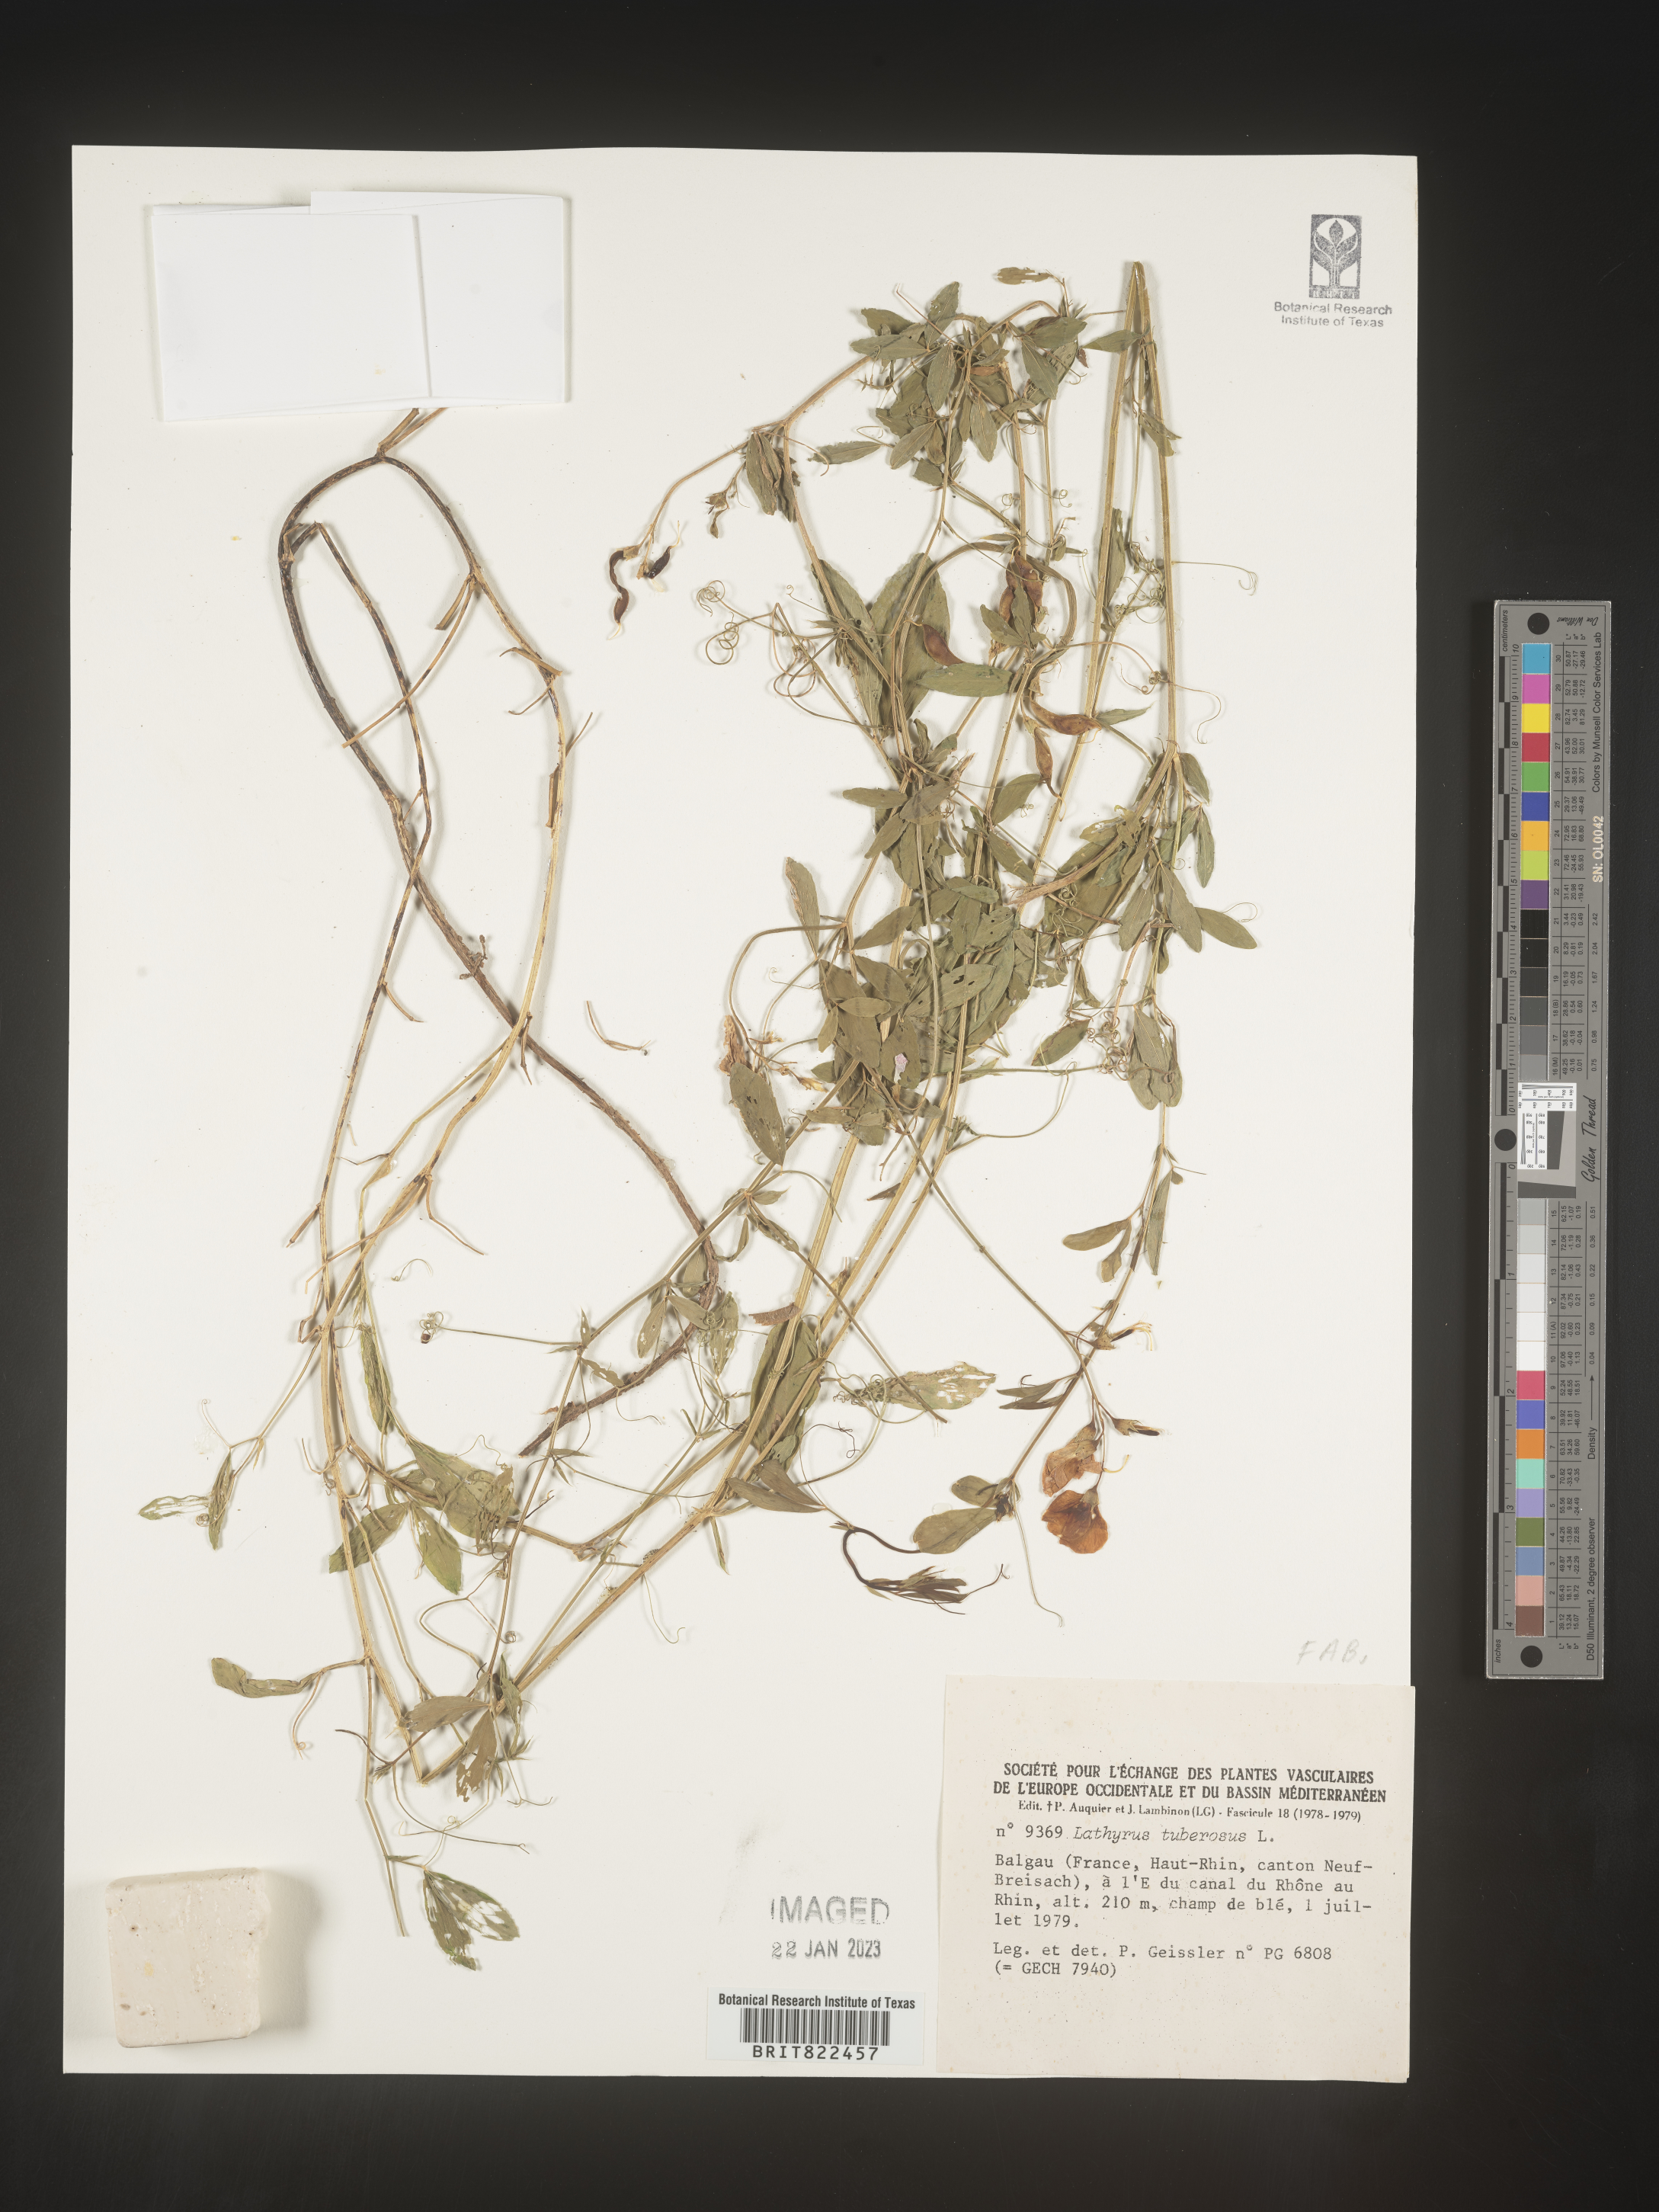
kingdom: Plantae
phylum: Tracheophyta
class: Magnoliopsida
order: Fabales
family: Fabaceae
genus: Lathyrus
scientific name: Lathyrus
